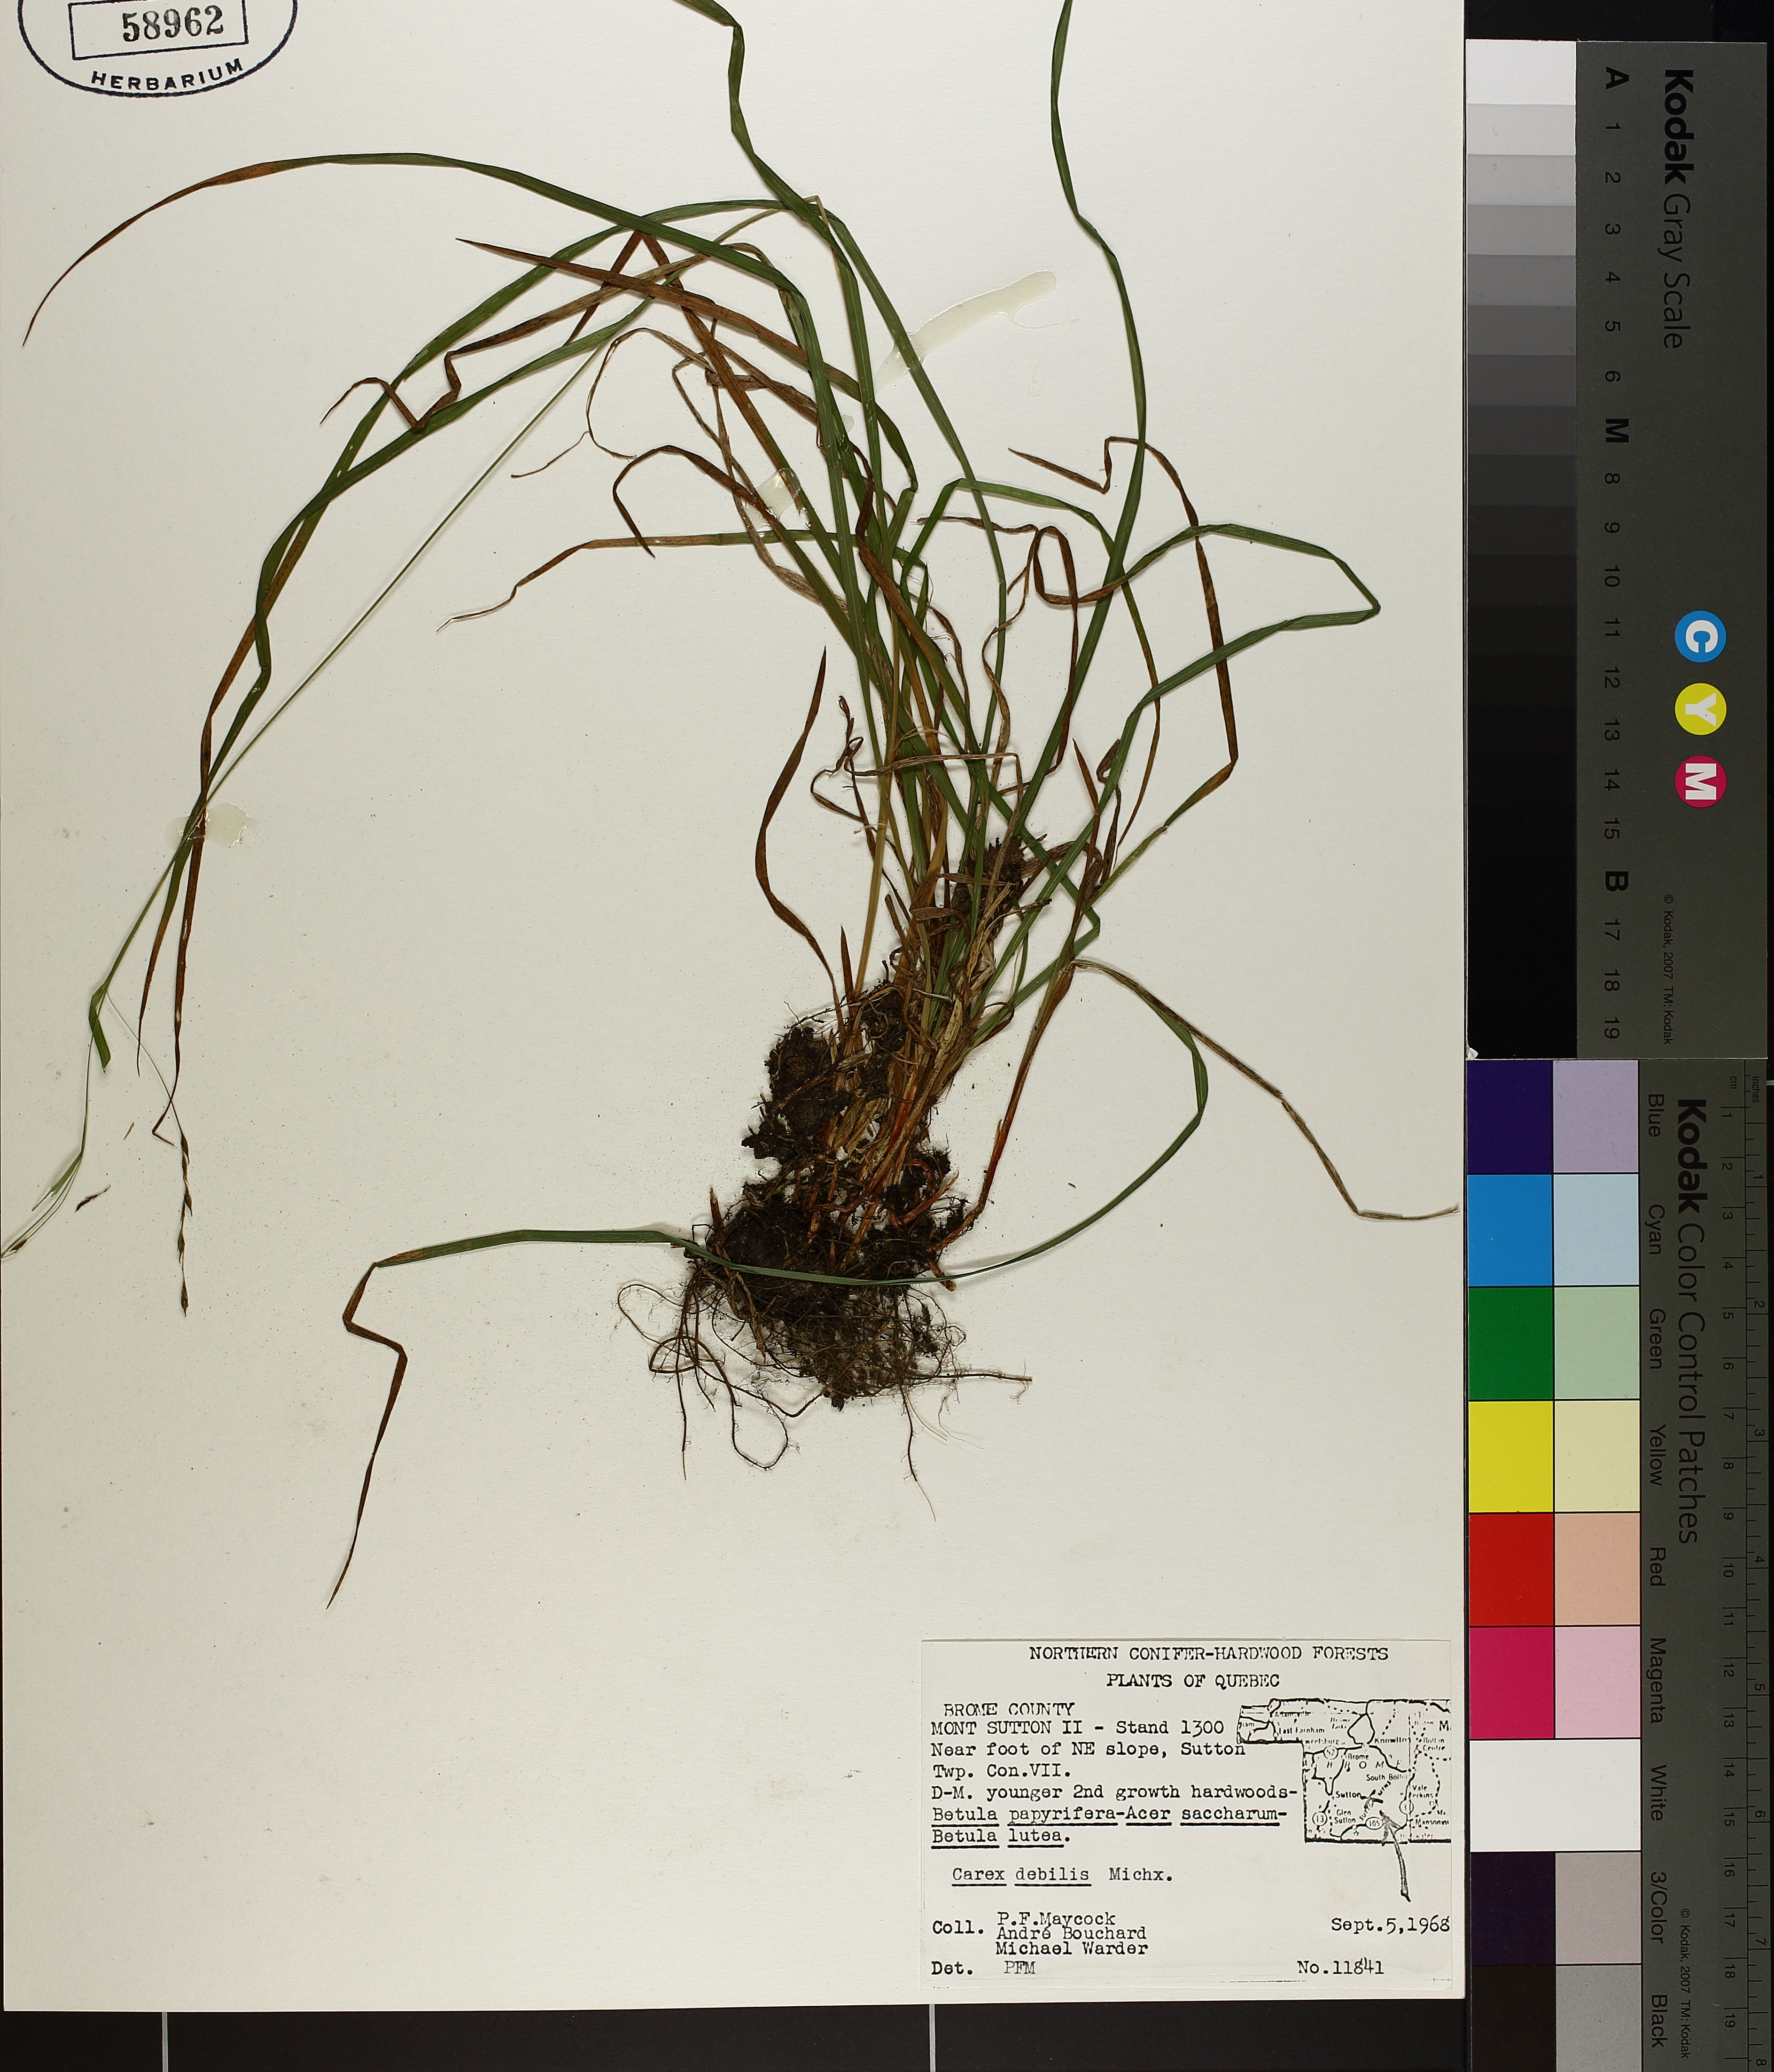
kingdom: Plantae
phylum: Tracheophyta
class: Liliopsida
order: Poales
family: Cyperaceae
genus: Carex
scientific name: Carex debilis
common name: White-edge sedge
